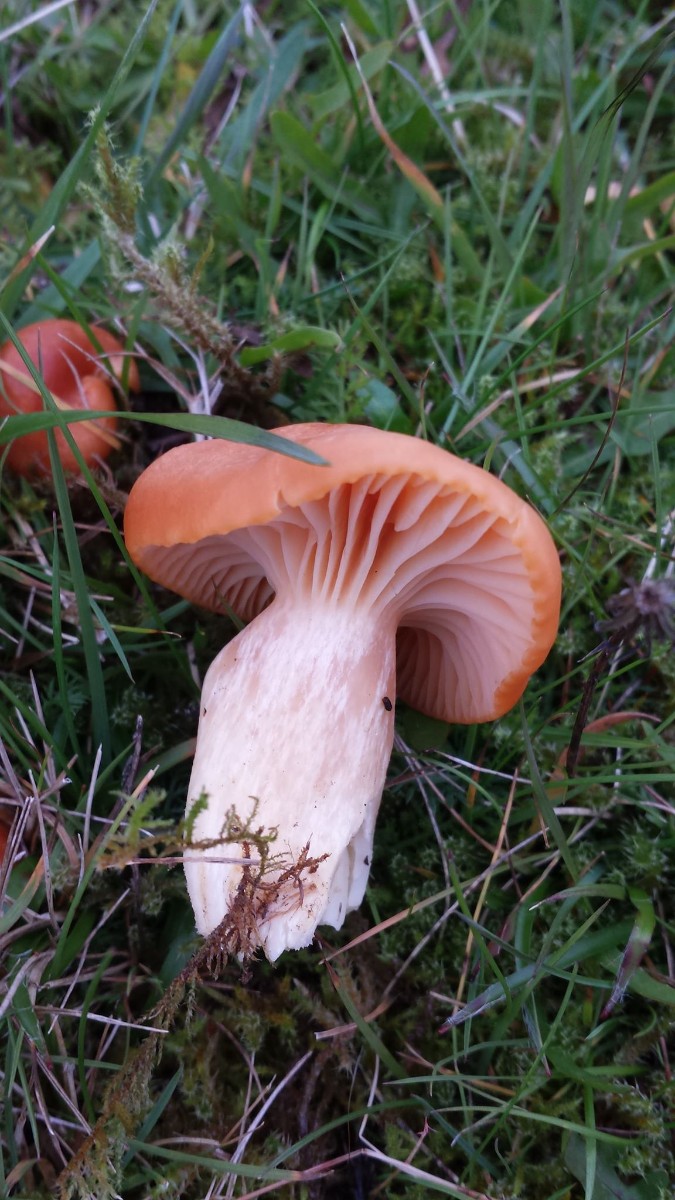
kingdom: Fungi
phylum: Basidiomycota
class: Agaricomycetes
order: Agaricales
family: Hygrophoraceae
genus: Cuphophyllus
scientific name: Cuphophyllus pratensis
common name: eng-vokshat
